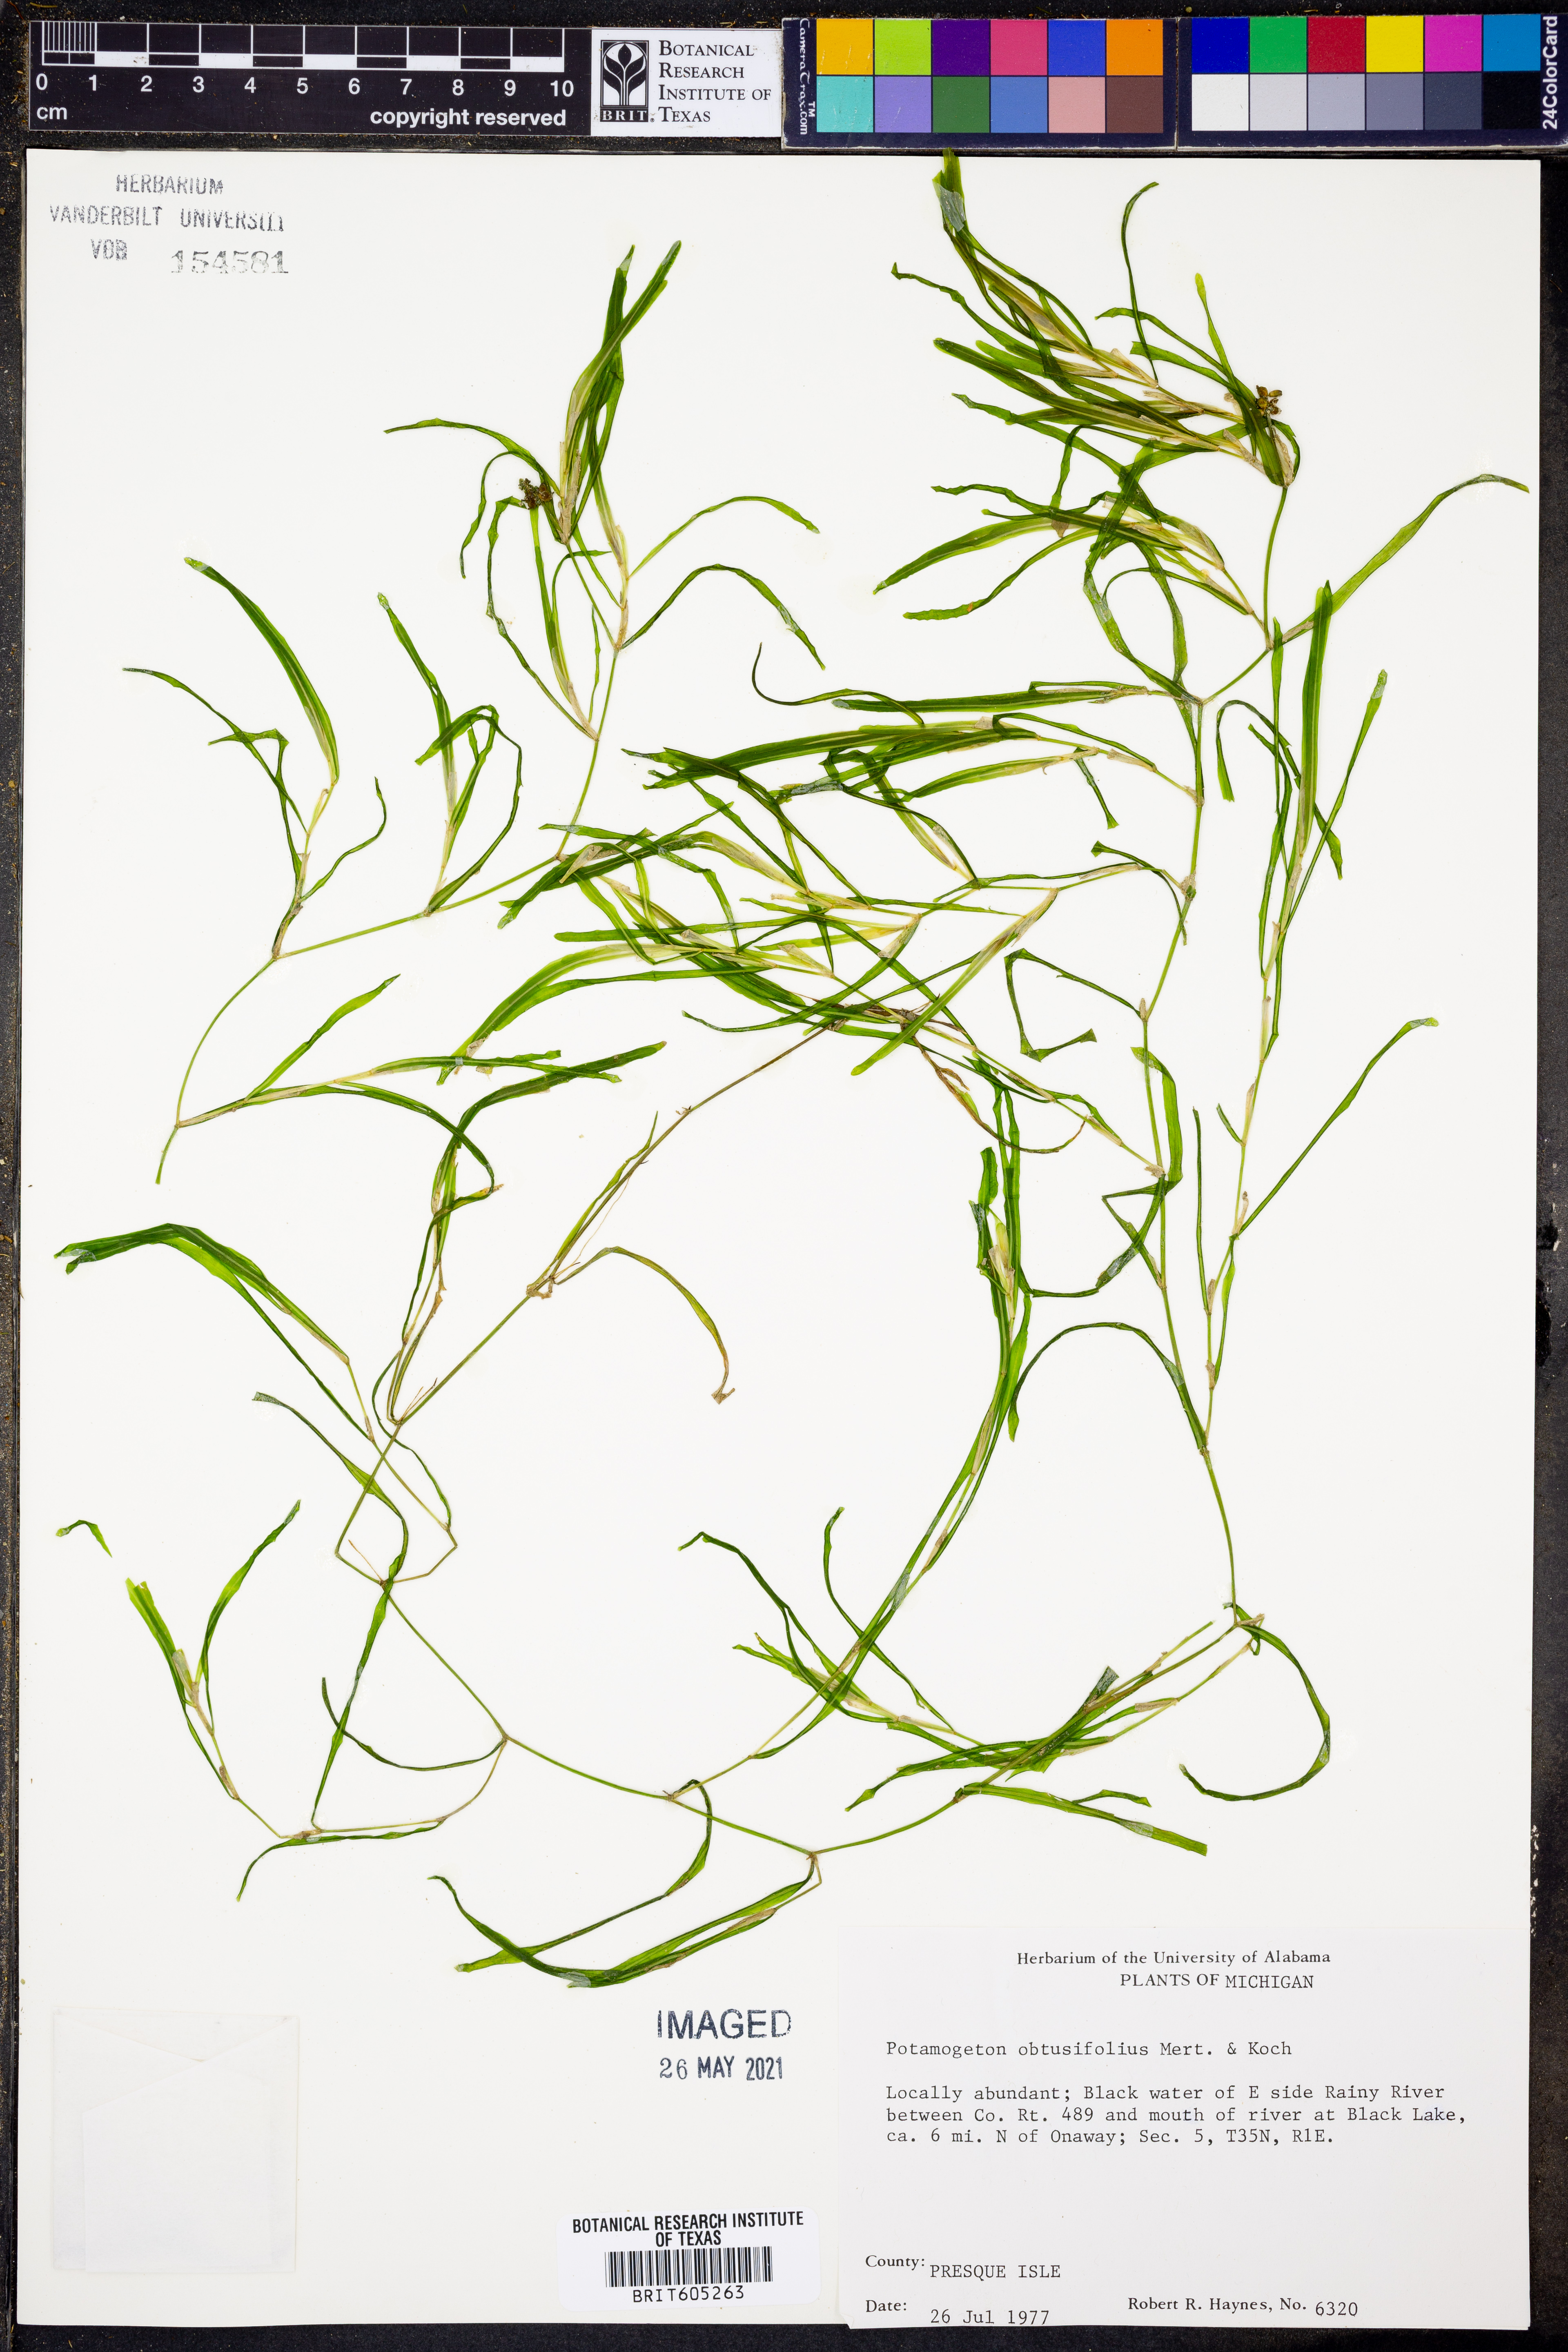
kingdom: Plantae
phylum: Tracheophyta
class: Liliopsida
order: Alismatales
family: Potamogetonaceae
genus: Potamogeton
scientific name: Potamogeton obtusifolius
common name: Blunt-leaved pondweed
